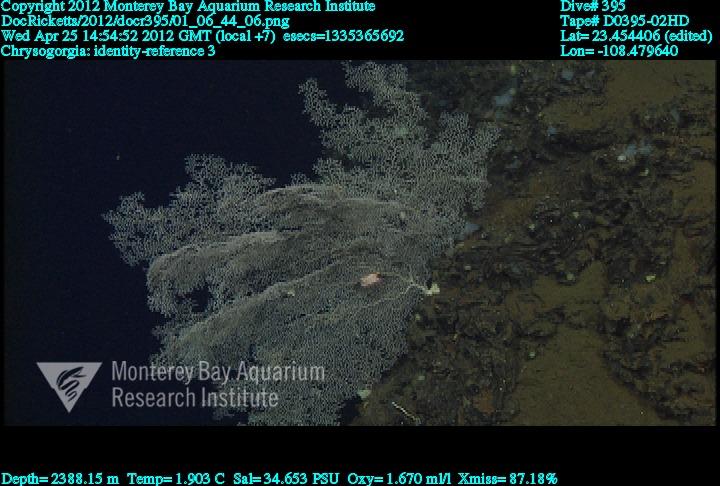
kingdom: Animalia
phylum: Cnidaria
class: Anthozoa
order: Scleralcyonacea
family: Chrysogorgiidae
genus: Chrysogorgia
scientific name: Chrysogorgia
